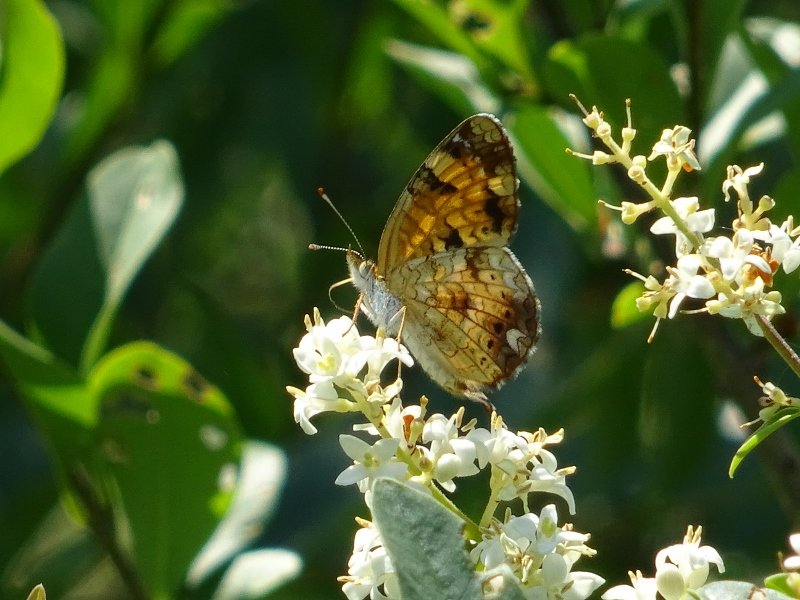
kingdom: Animalia
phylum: Arthropoda
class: Insecta
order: Lepidoptera
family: Nymphalidae
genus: Phyciodes
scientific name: Phyciodes tharos
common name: Northern Crescent
